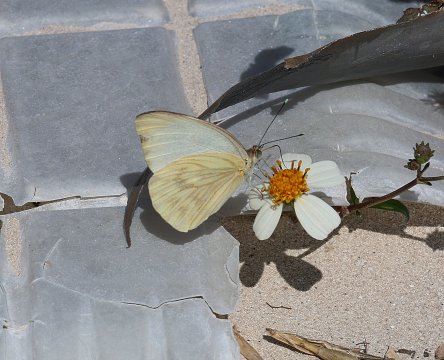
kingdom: Animalia
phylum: Arthropoda
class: Insecta
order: Lepidoptera
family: Pieridae
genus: Ascia
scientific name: Ascia monuste
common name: Great Southern White
